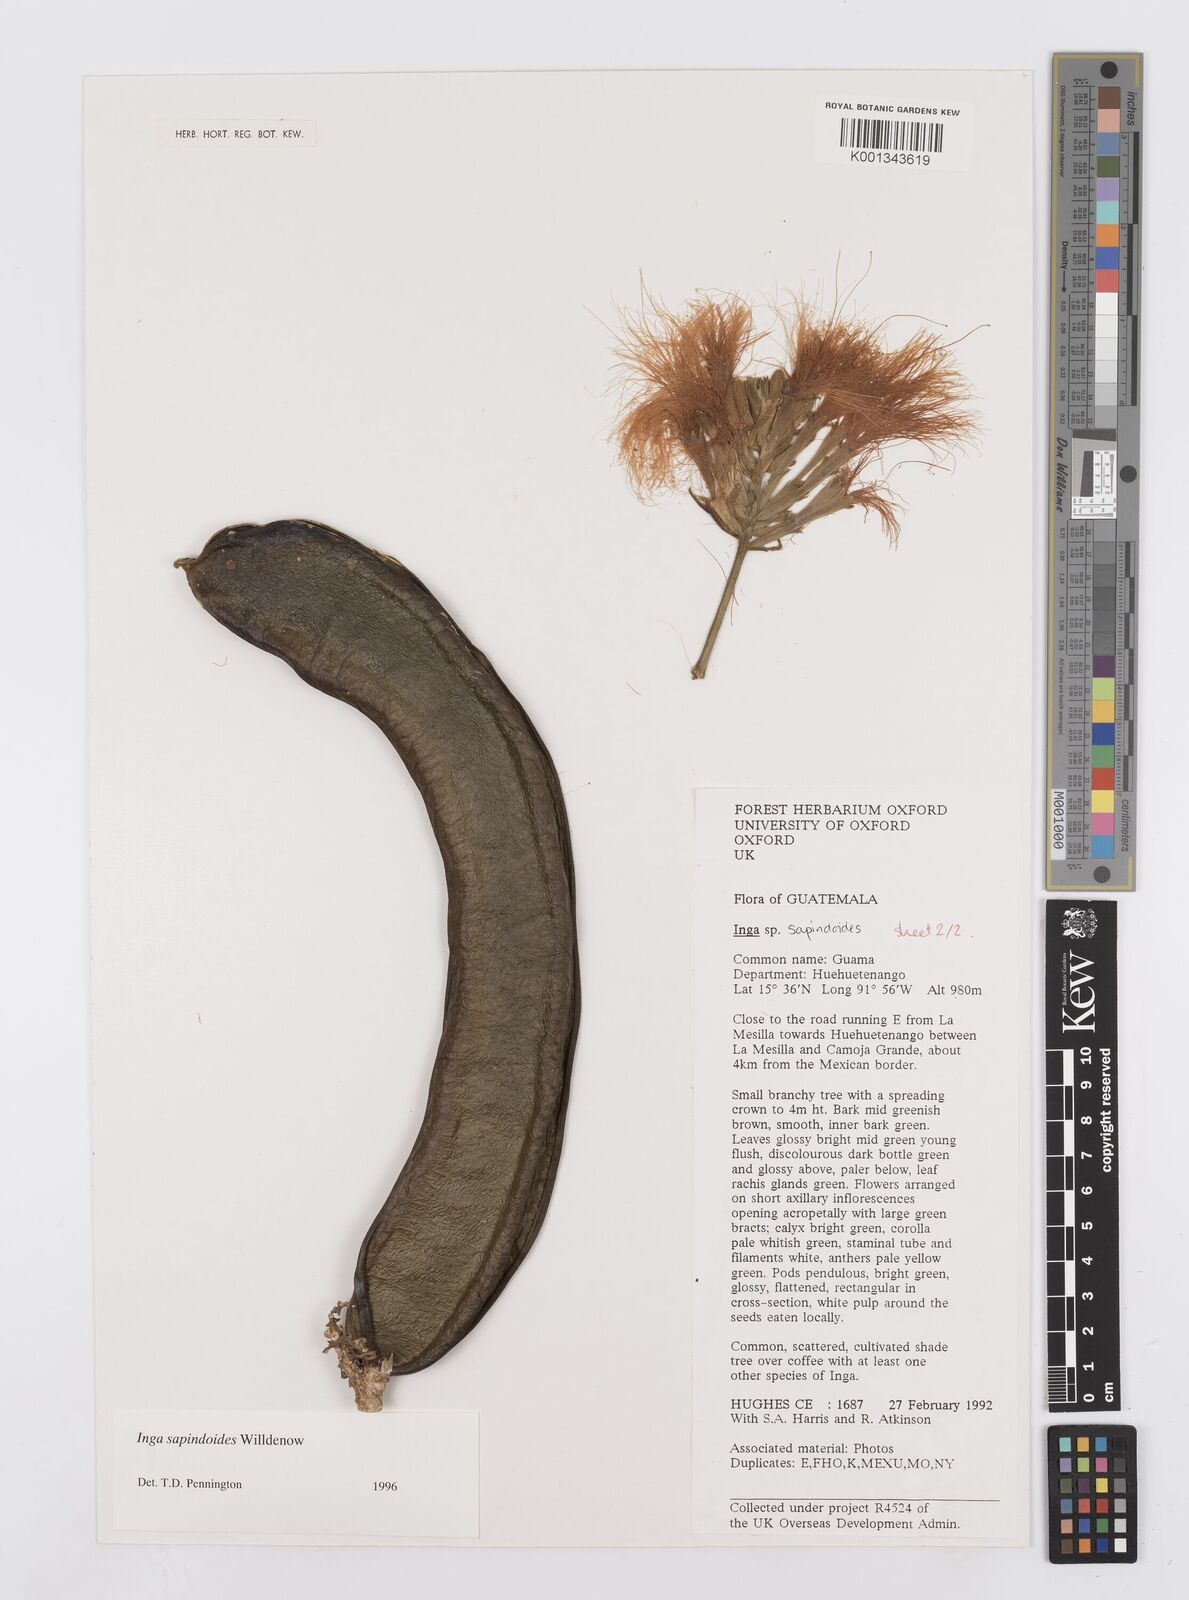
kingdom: Plantae
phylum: Tracheophyta
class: Magnoliopsida
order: Fabales
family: Fabaceae
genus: Inga
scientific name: Inga sapindoides
